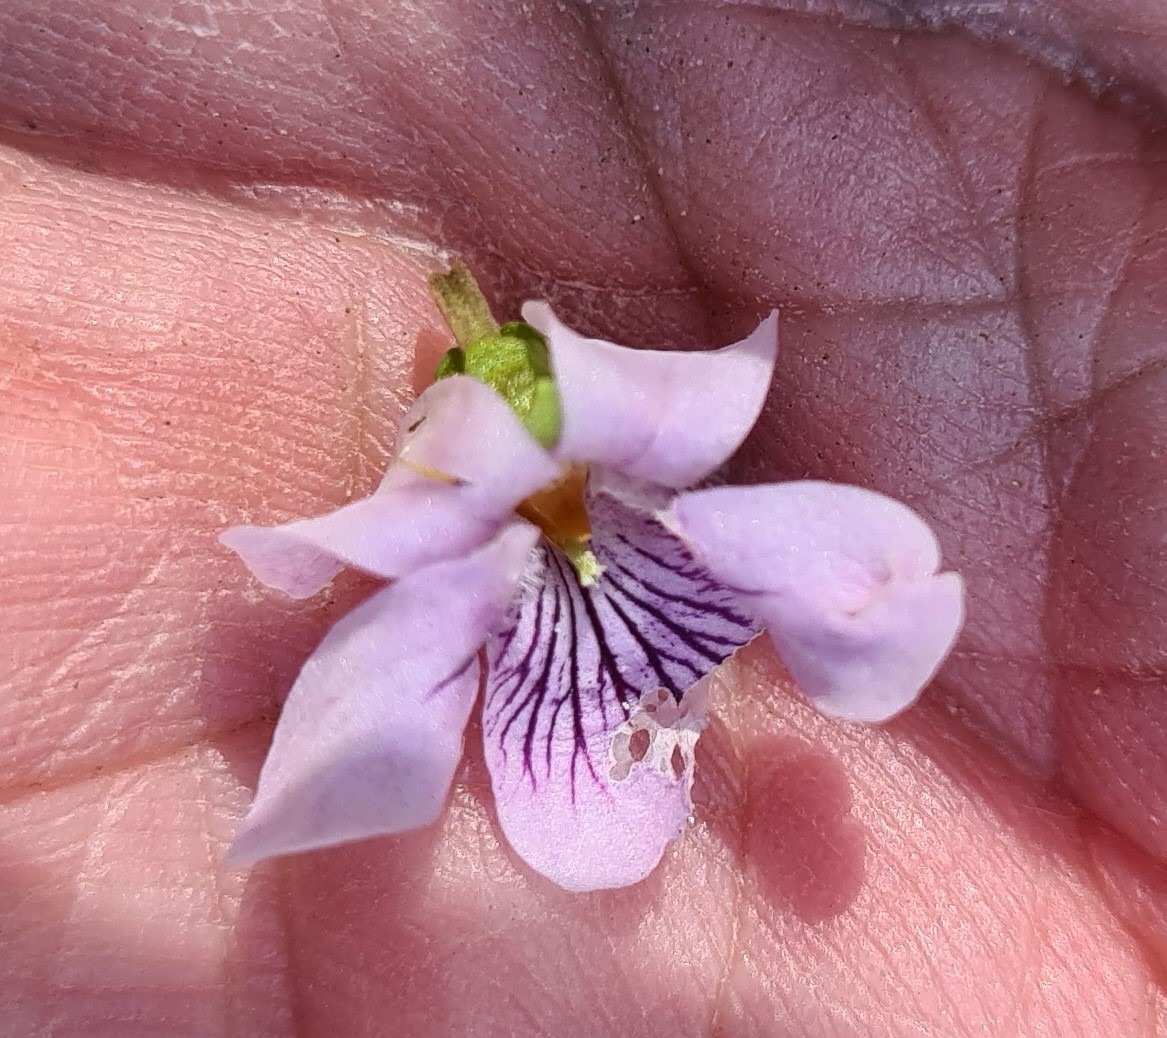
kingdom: Plantae
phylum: Tracheophyta
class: Magnoliopsida
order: Malpighiales
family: Violaceae
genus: Viola
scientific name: Viola palustris
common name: Eng-viol
